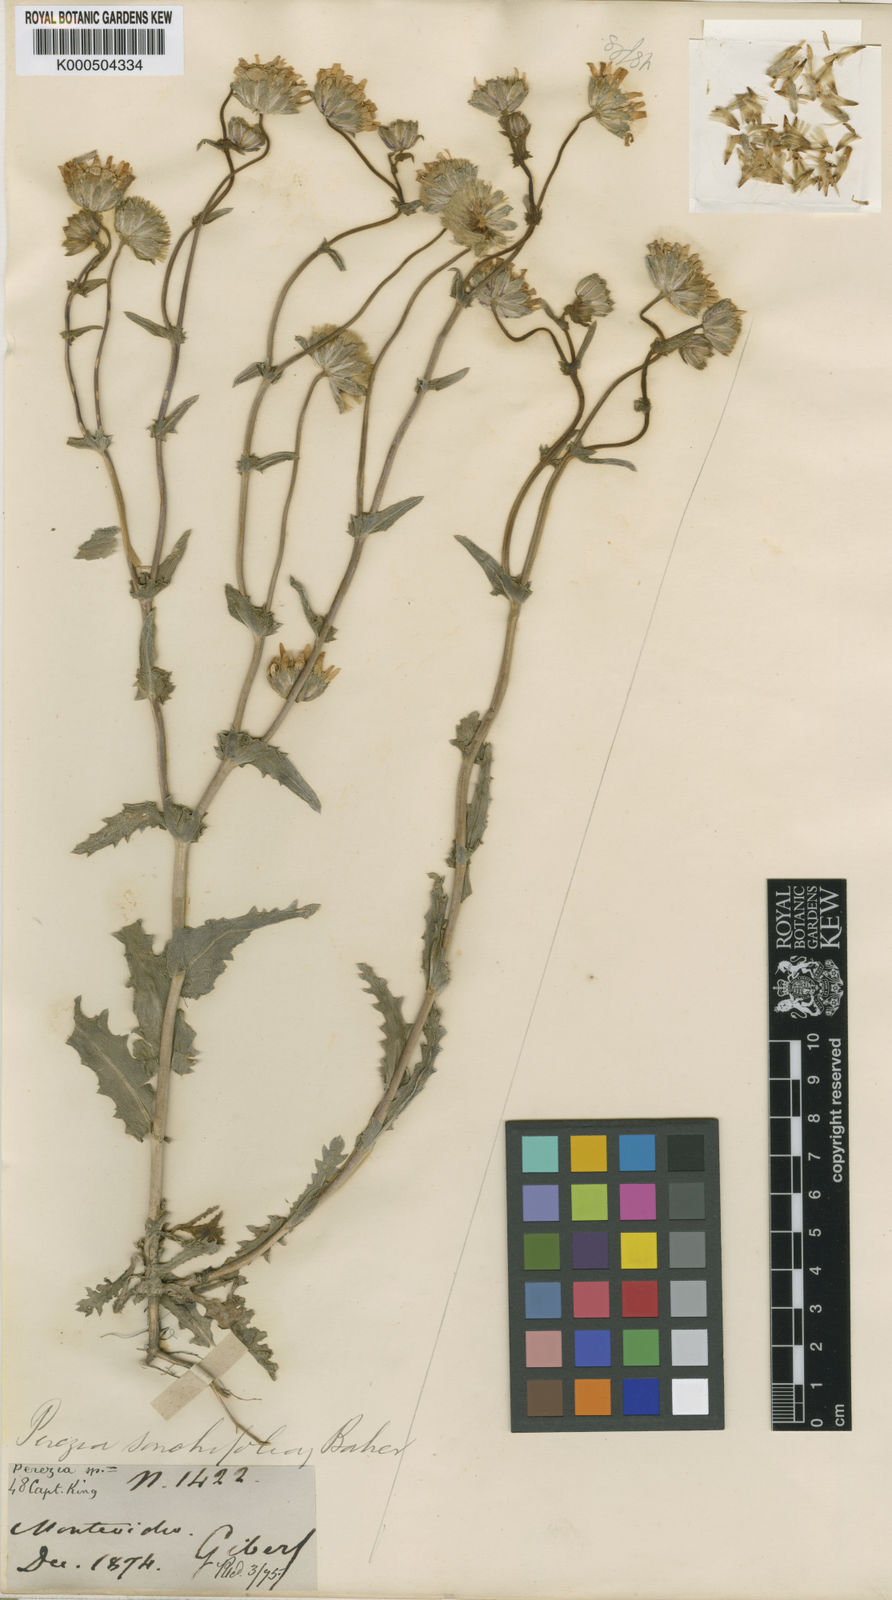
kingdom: Plantae
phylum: Tracheophyta
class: Magnoliopsida
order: Asterales
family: Asteraceae
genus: Perezia
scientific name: Perezia multiflora
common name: Perezia
